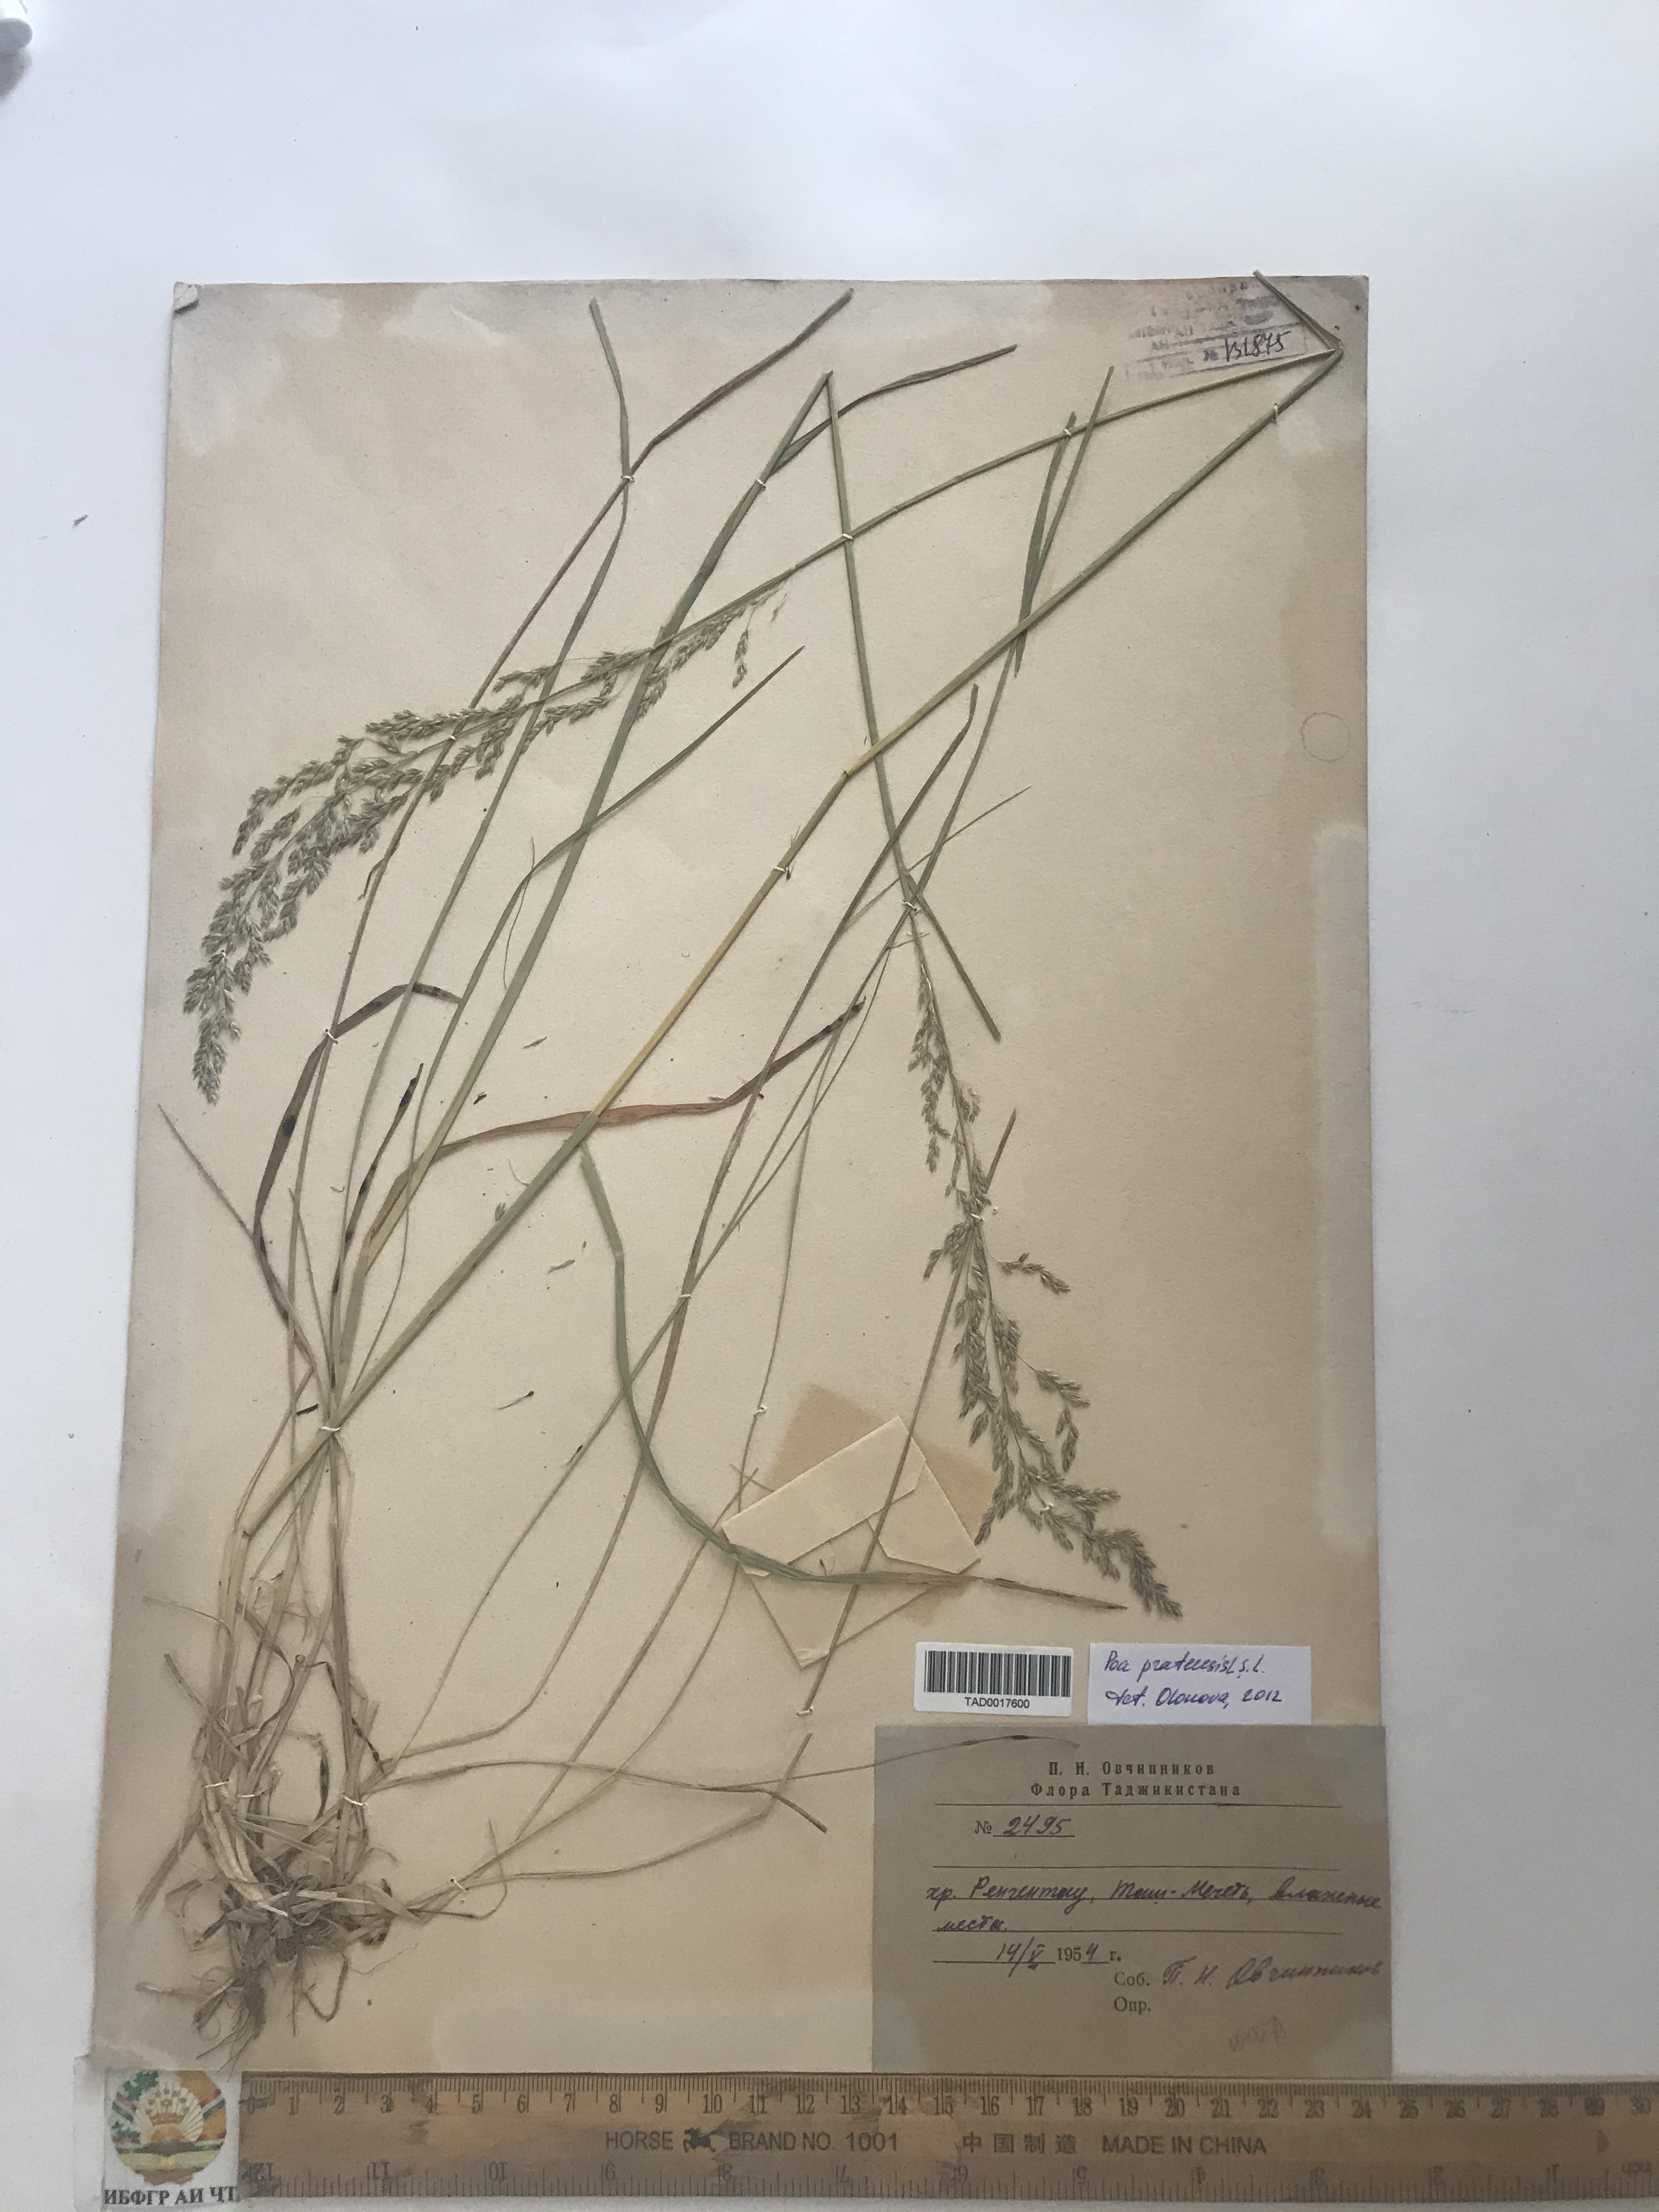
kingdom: Plantae
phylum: Tracheophyta
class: Liliopsida
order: Poales
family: Poaceae
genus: Poa
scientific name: Poa pratensis
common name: Kentucky bluegrass
